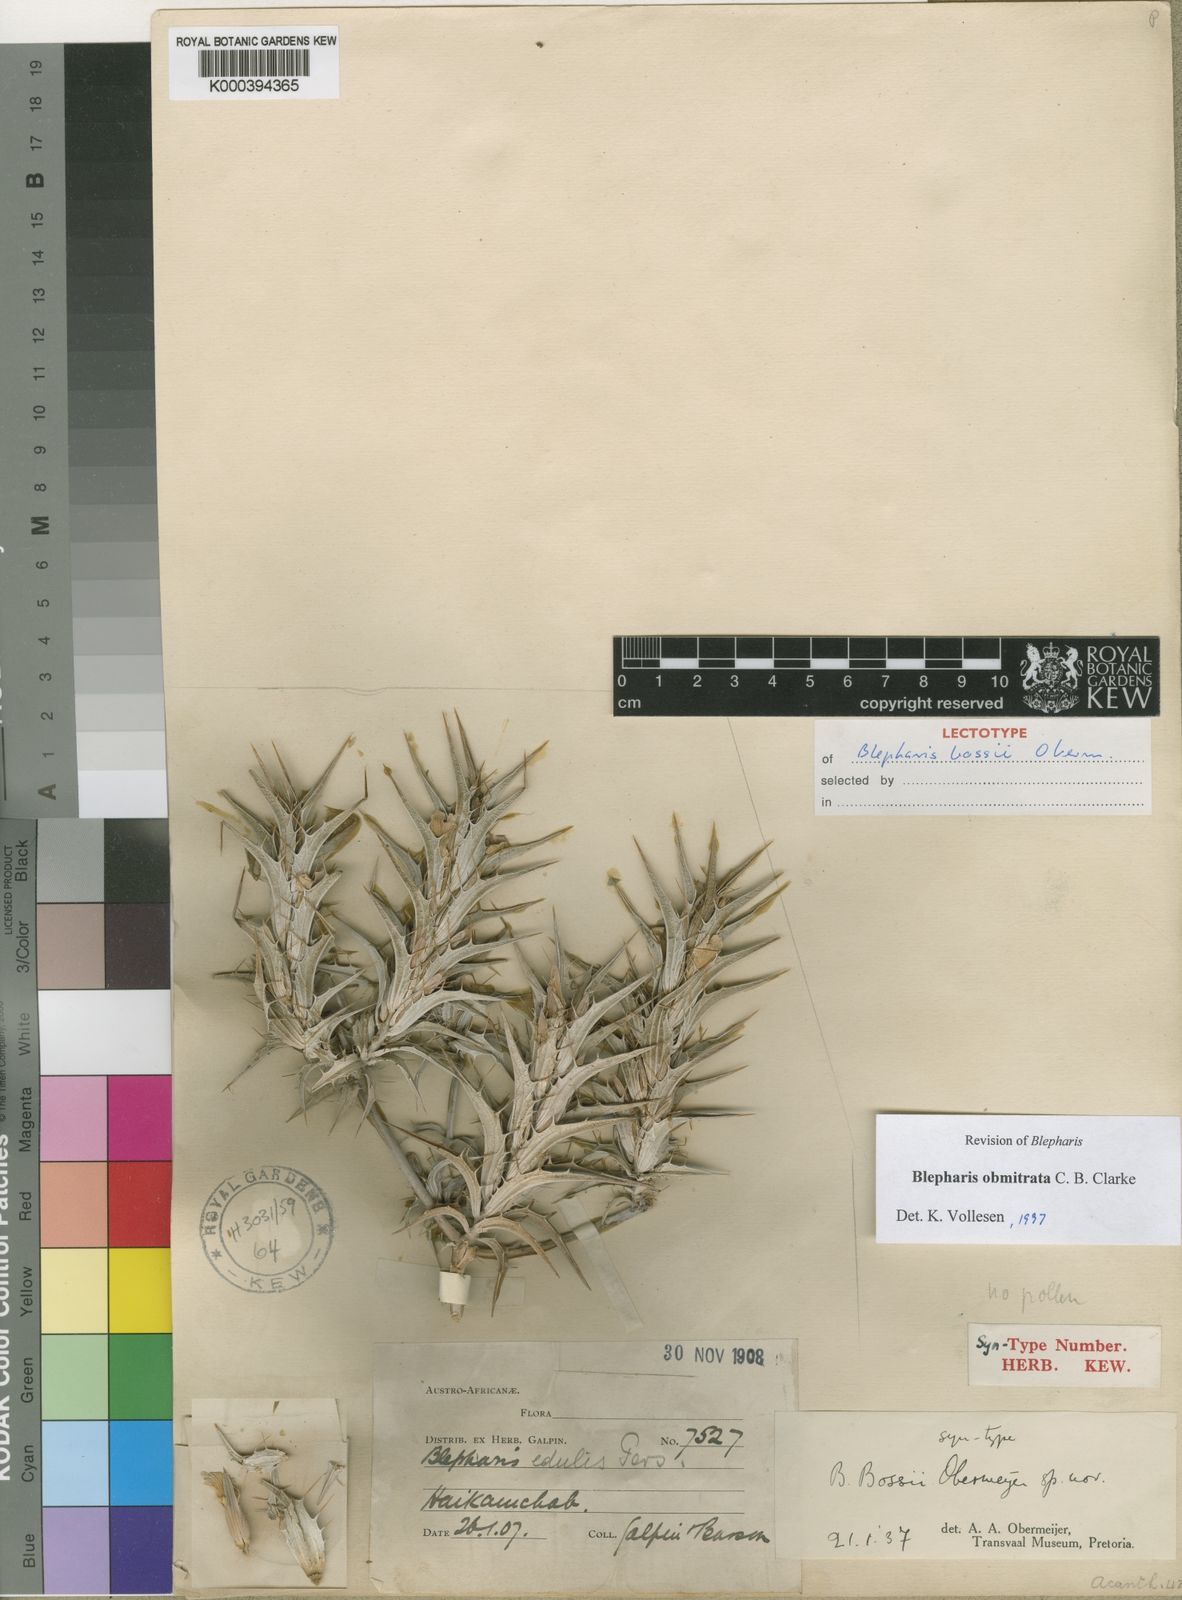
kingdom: Plantae
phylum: Tracheophyta
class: Magnoliopsida
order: Lamiales
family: Acanthaceae
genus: Blepharis
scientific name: Blepharis obmitrata
